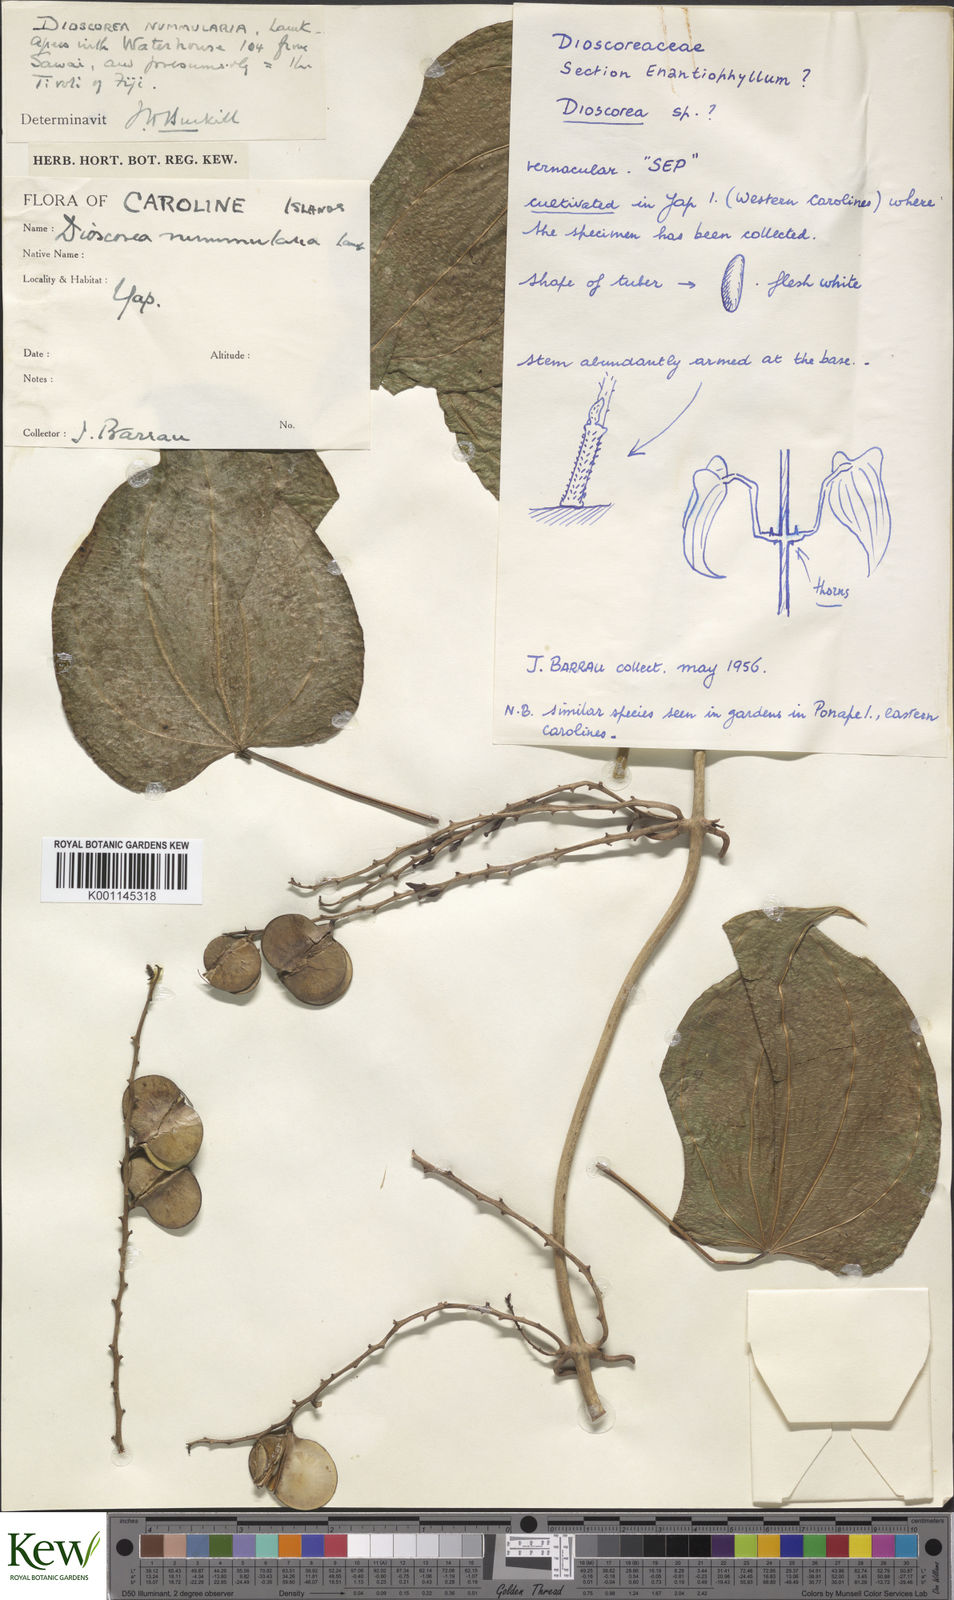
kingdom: Plantae
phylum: Tracheophyta
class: Liliopsida
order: Dioscoreales
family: Dioscoreaceae
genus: Dioscorea
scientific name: Dioscorea nummularia
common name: Pacific yam
